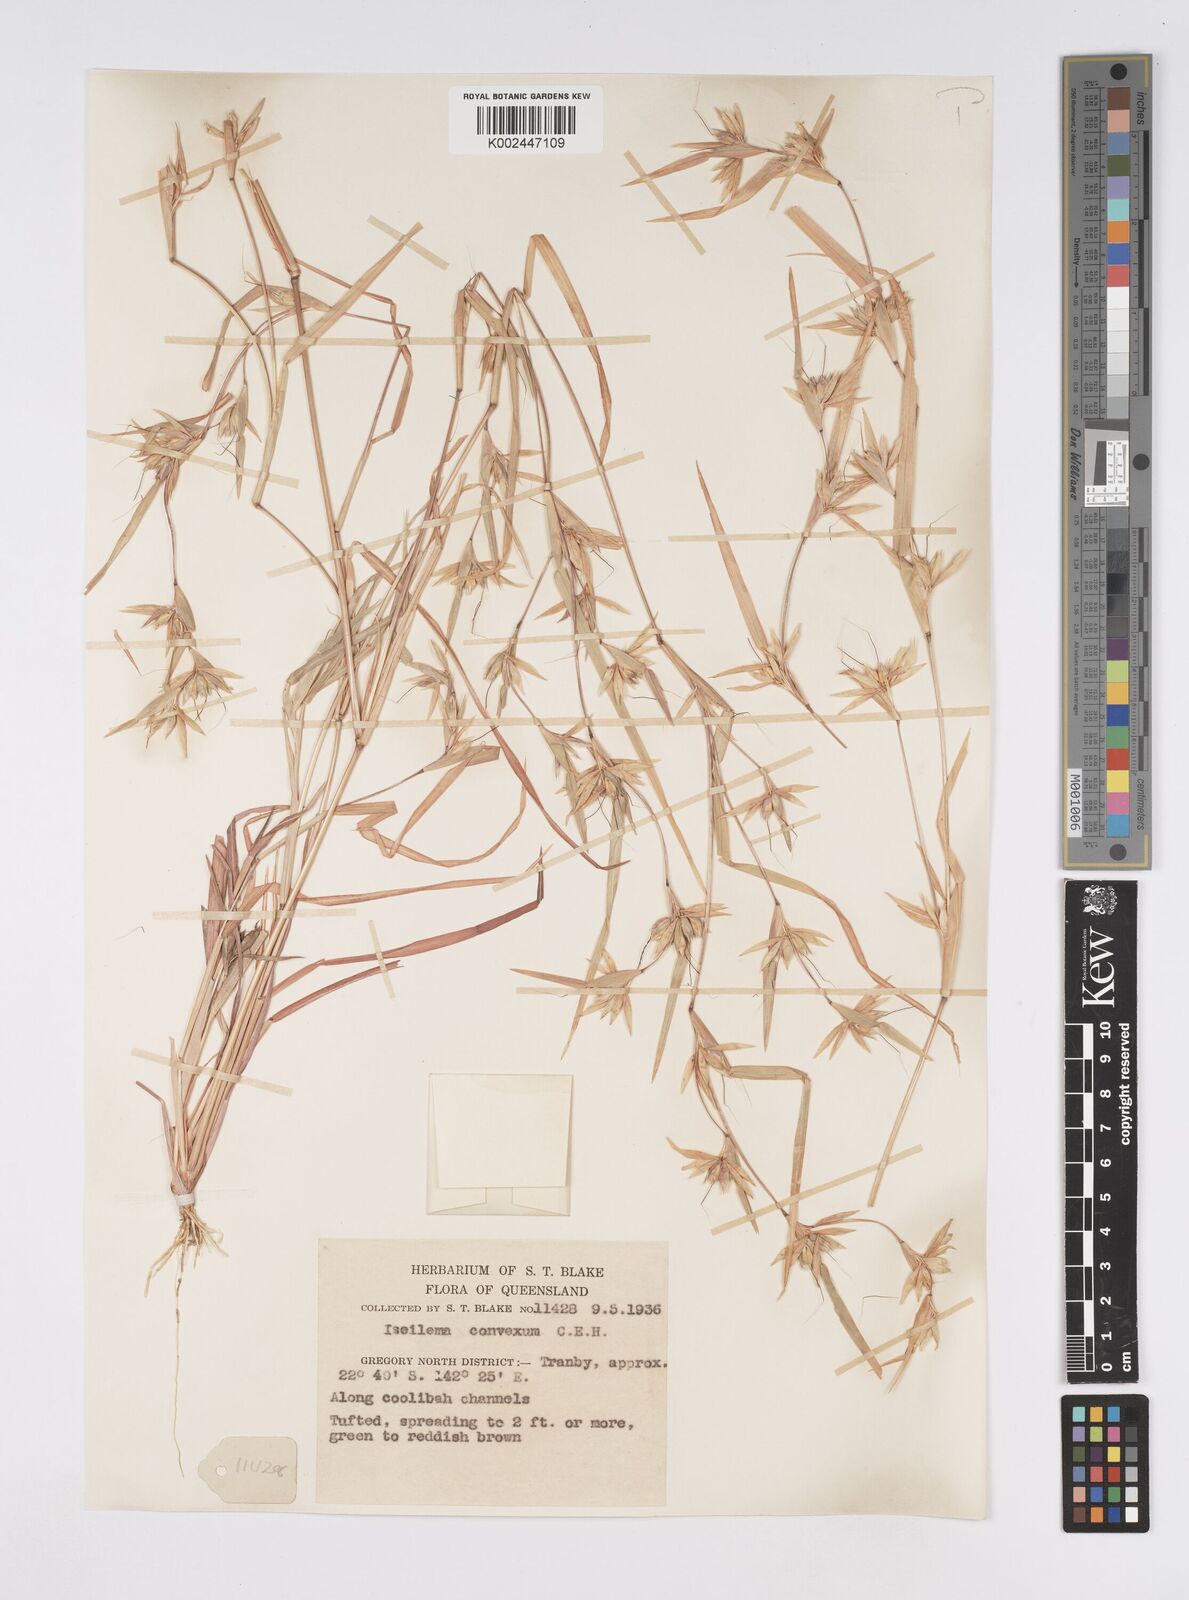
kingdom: Plantae
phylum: Tracheophyta
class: Liliopsida
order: Poales
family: Poaceae
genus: Iseilema
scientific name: Iseilema convexum
